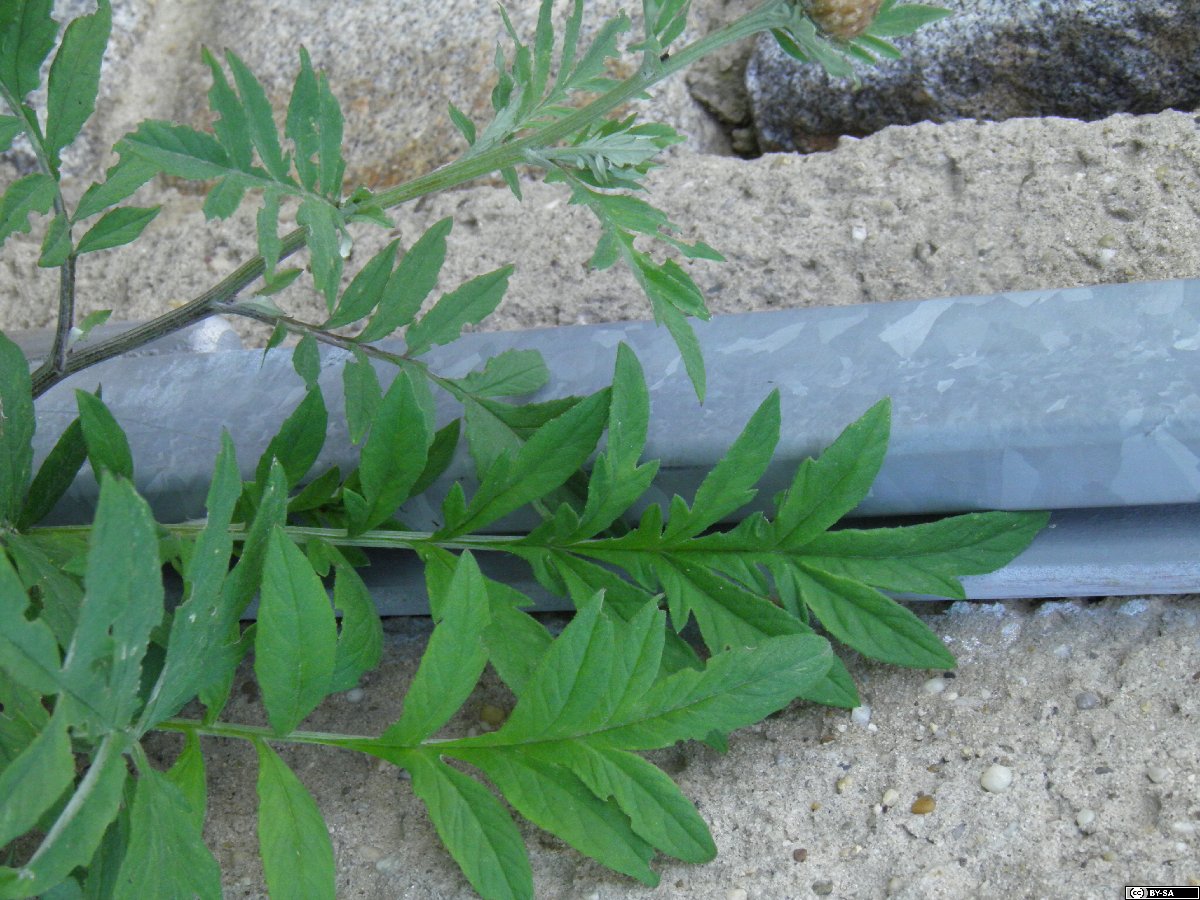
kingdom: Plantae
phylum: Tracheophyta
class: Magnoliopsida
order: Asterales
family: Asteraceae
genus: Psephellus
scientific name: Psephellus dealbatus
